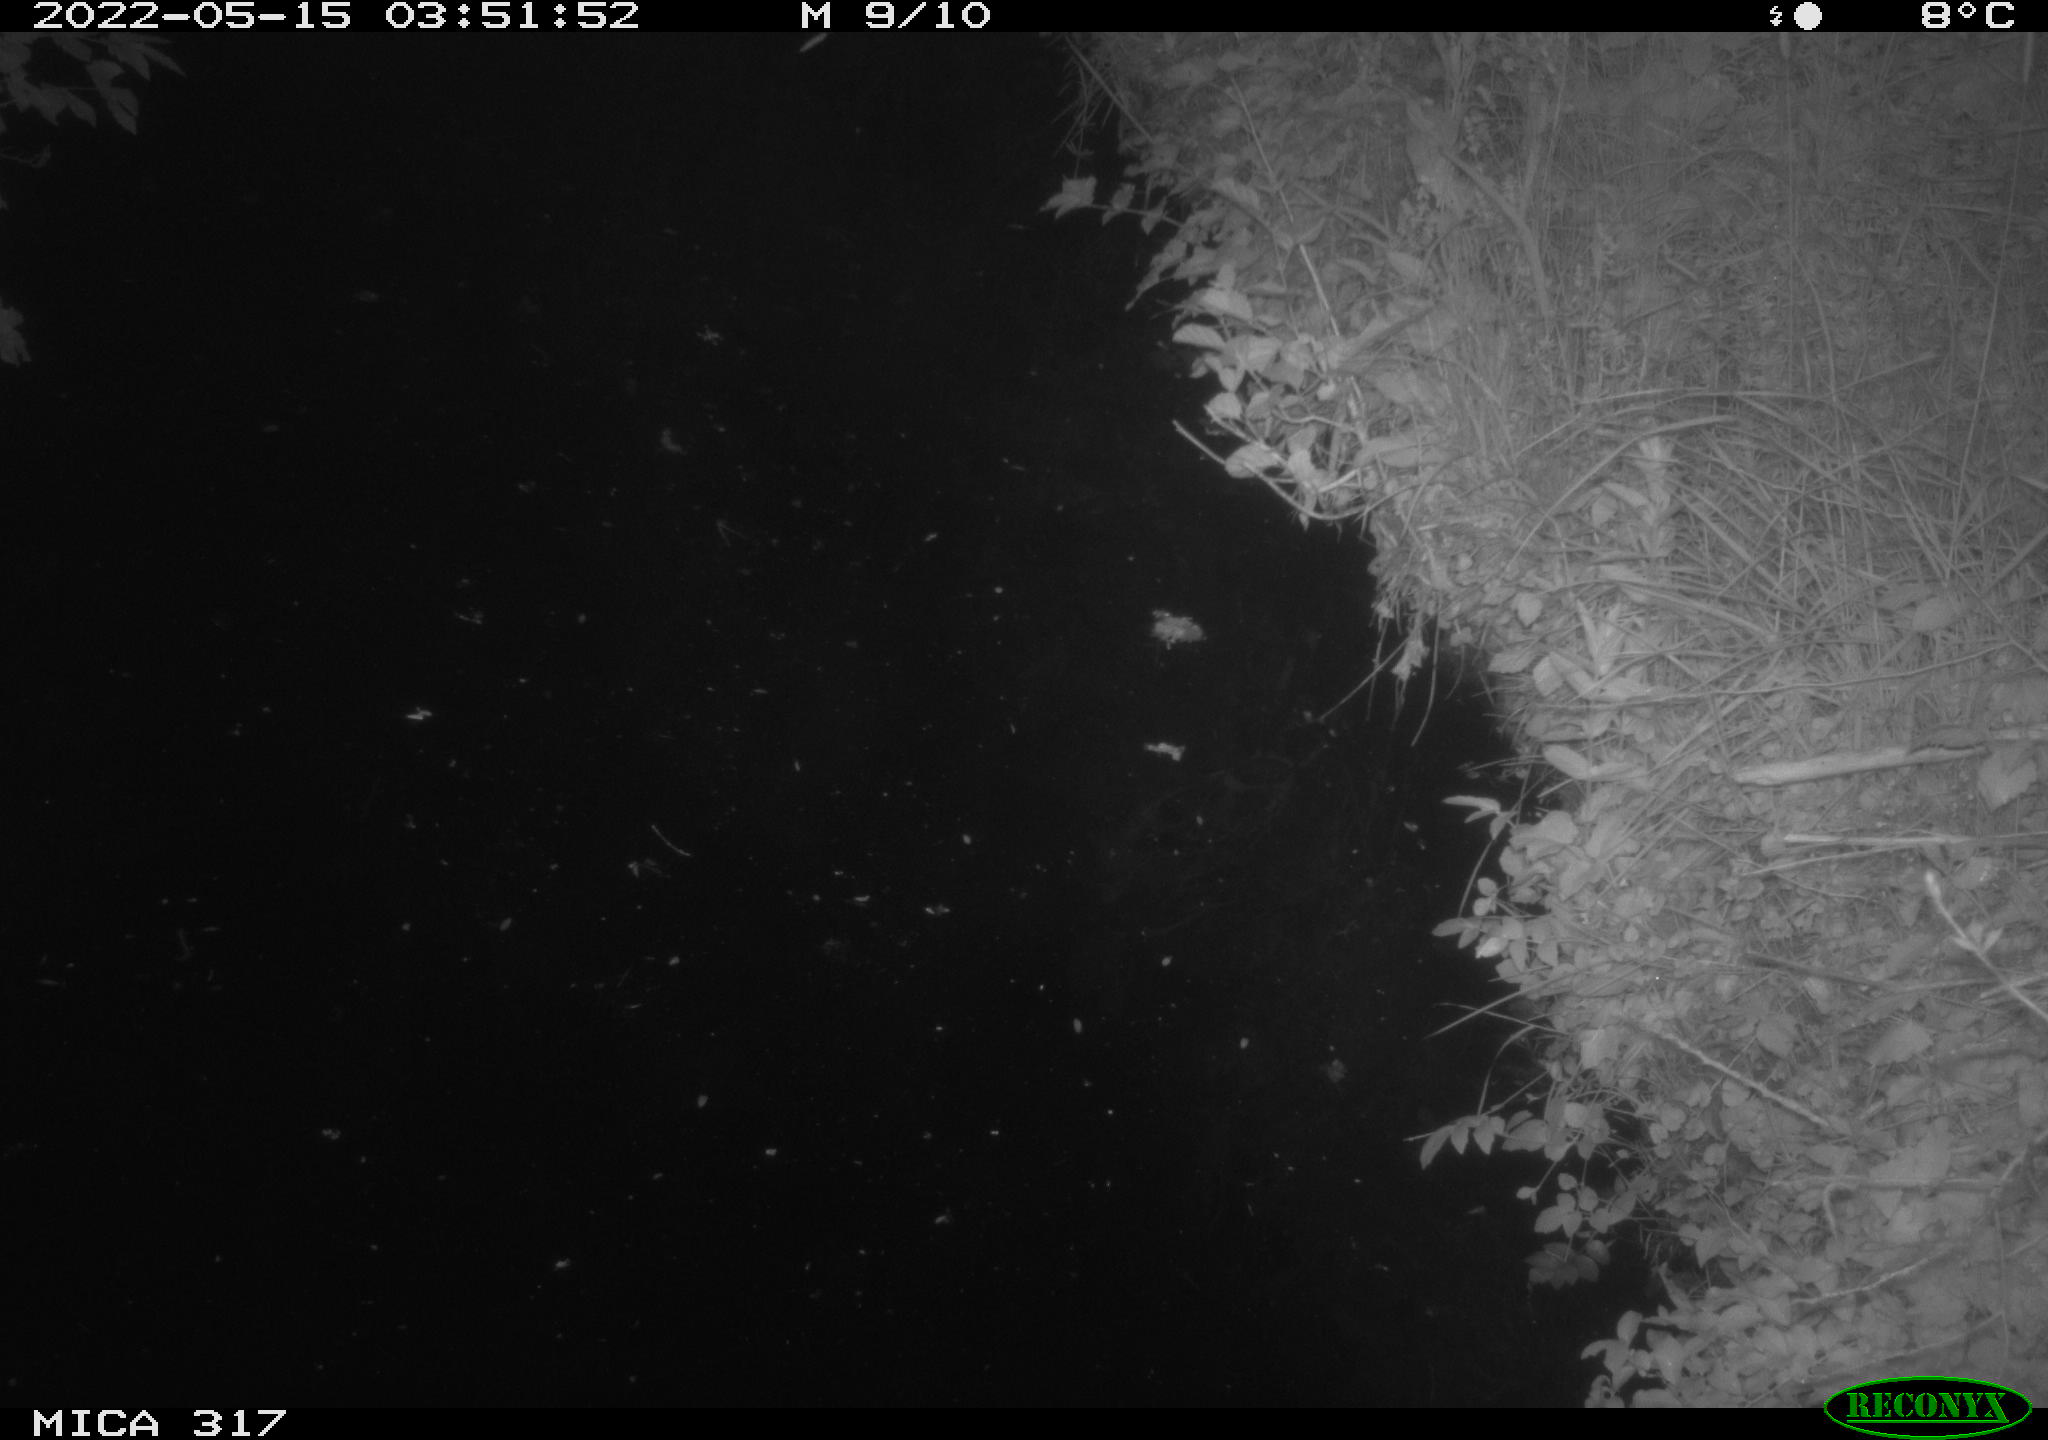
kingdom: Animalia
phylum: Chordata
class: Aves
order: Anseriformes
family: Anatidae
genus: Anas
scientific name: Anas
